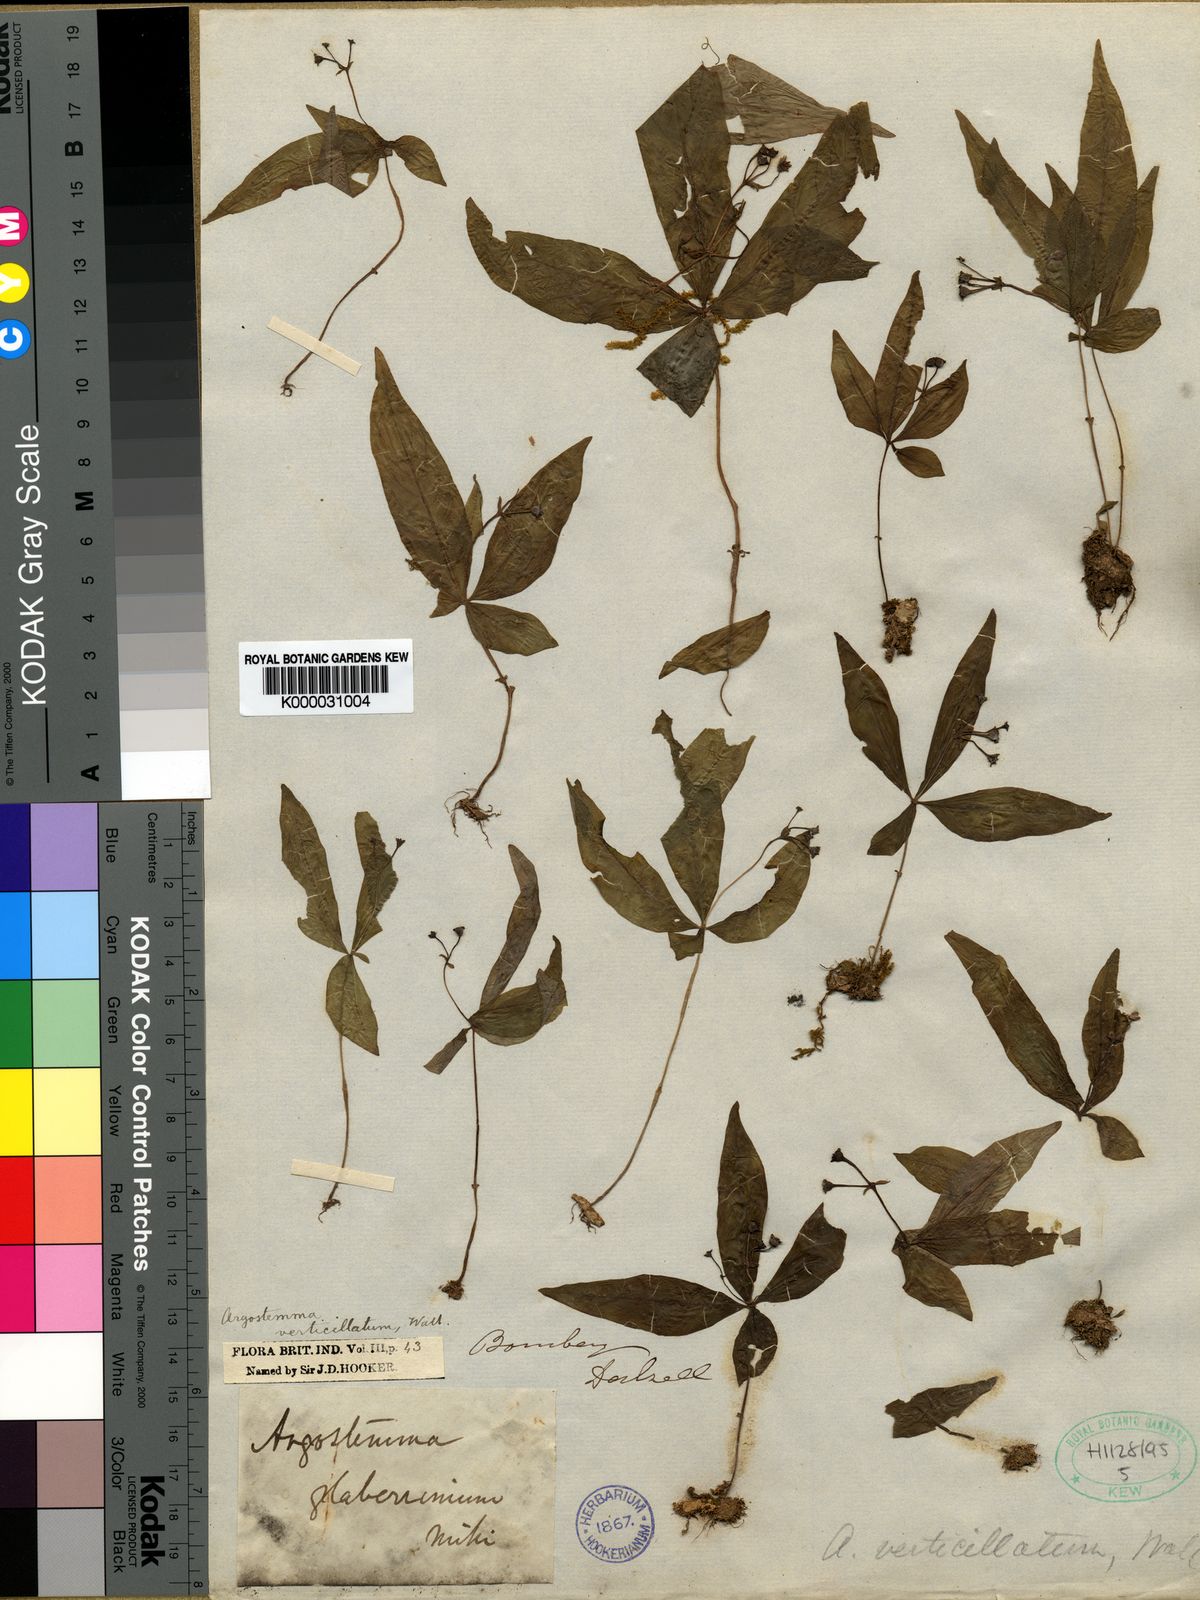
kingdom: Plantae
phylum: Tracheophyta
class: Magnoliopsida
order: Gentianales
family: Rubiaceae
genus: Argostemma
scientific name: Argostemma verticillatum
